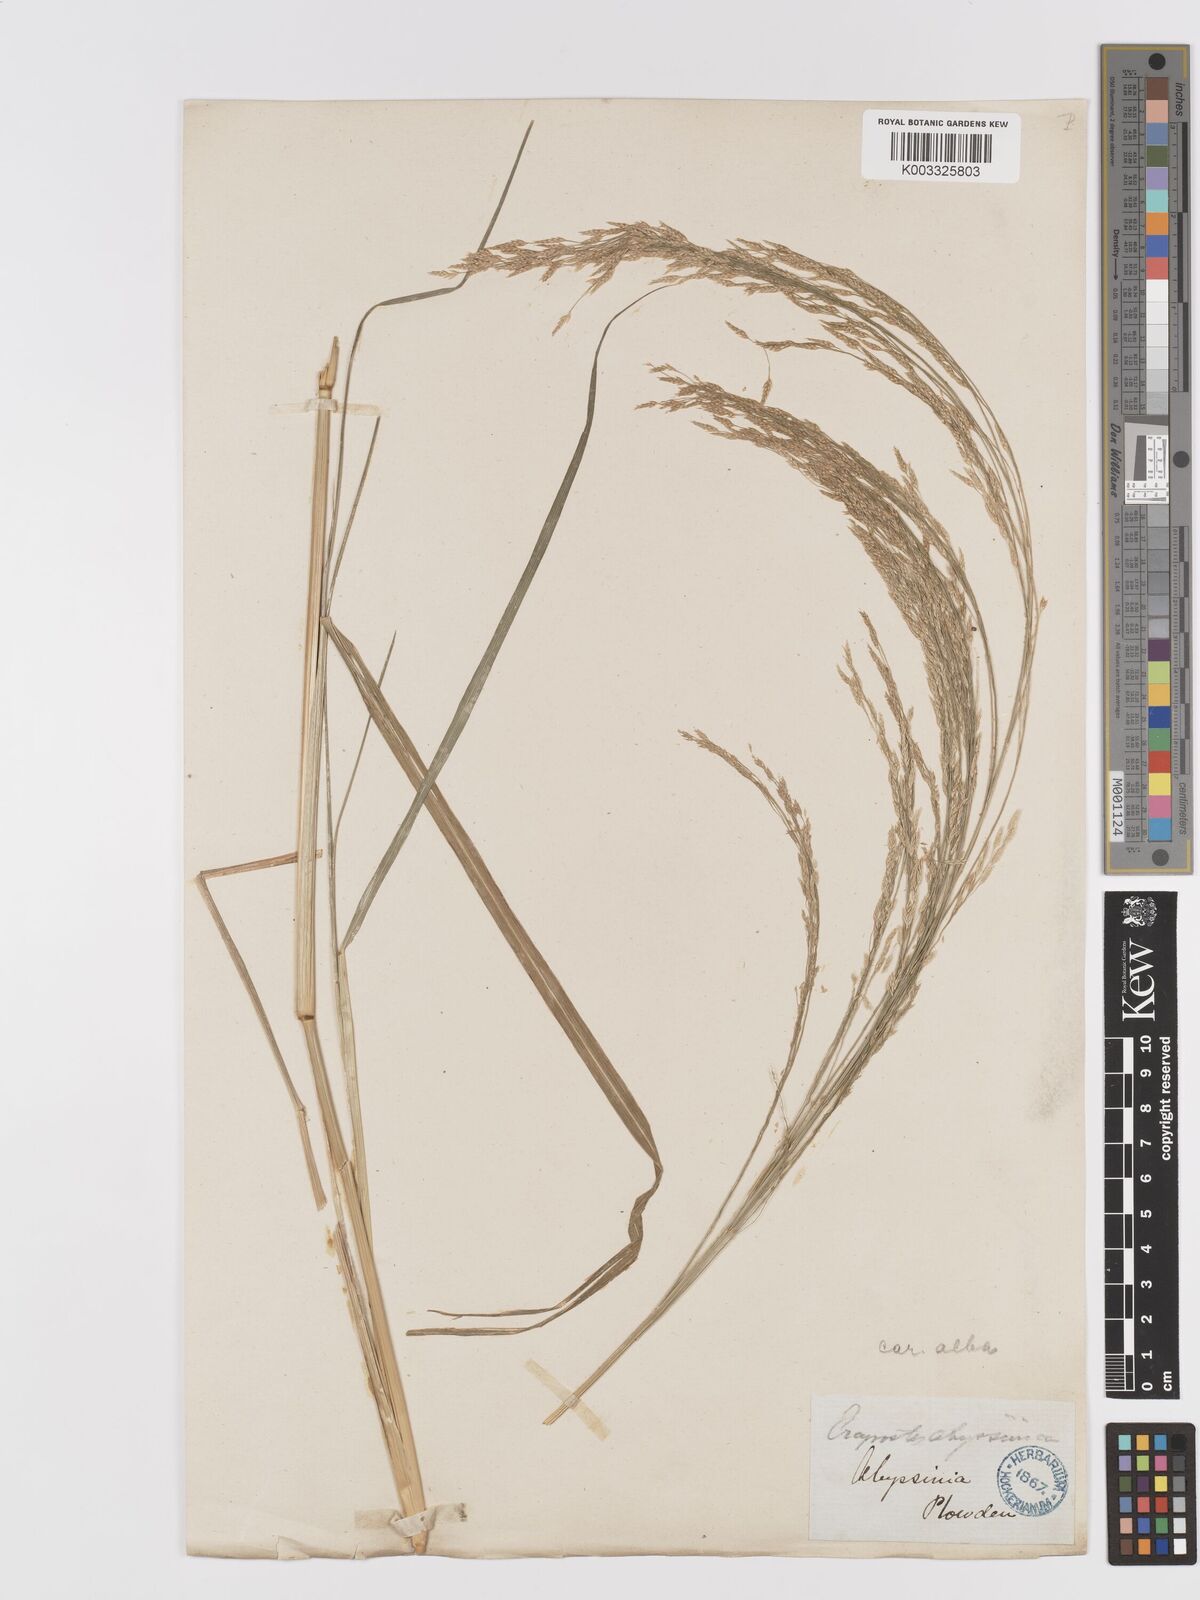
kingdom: Plantae
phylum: Tracheophyta
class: Liliopsida
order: Poales
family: Poaceae
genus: Eragrostis
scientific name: Eragrostis tef
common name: Teff
